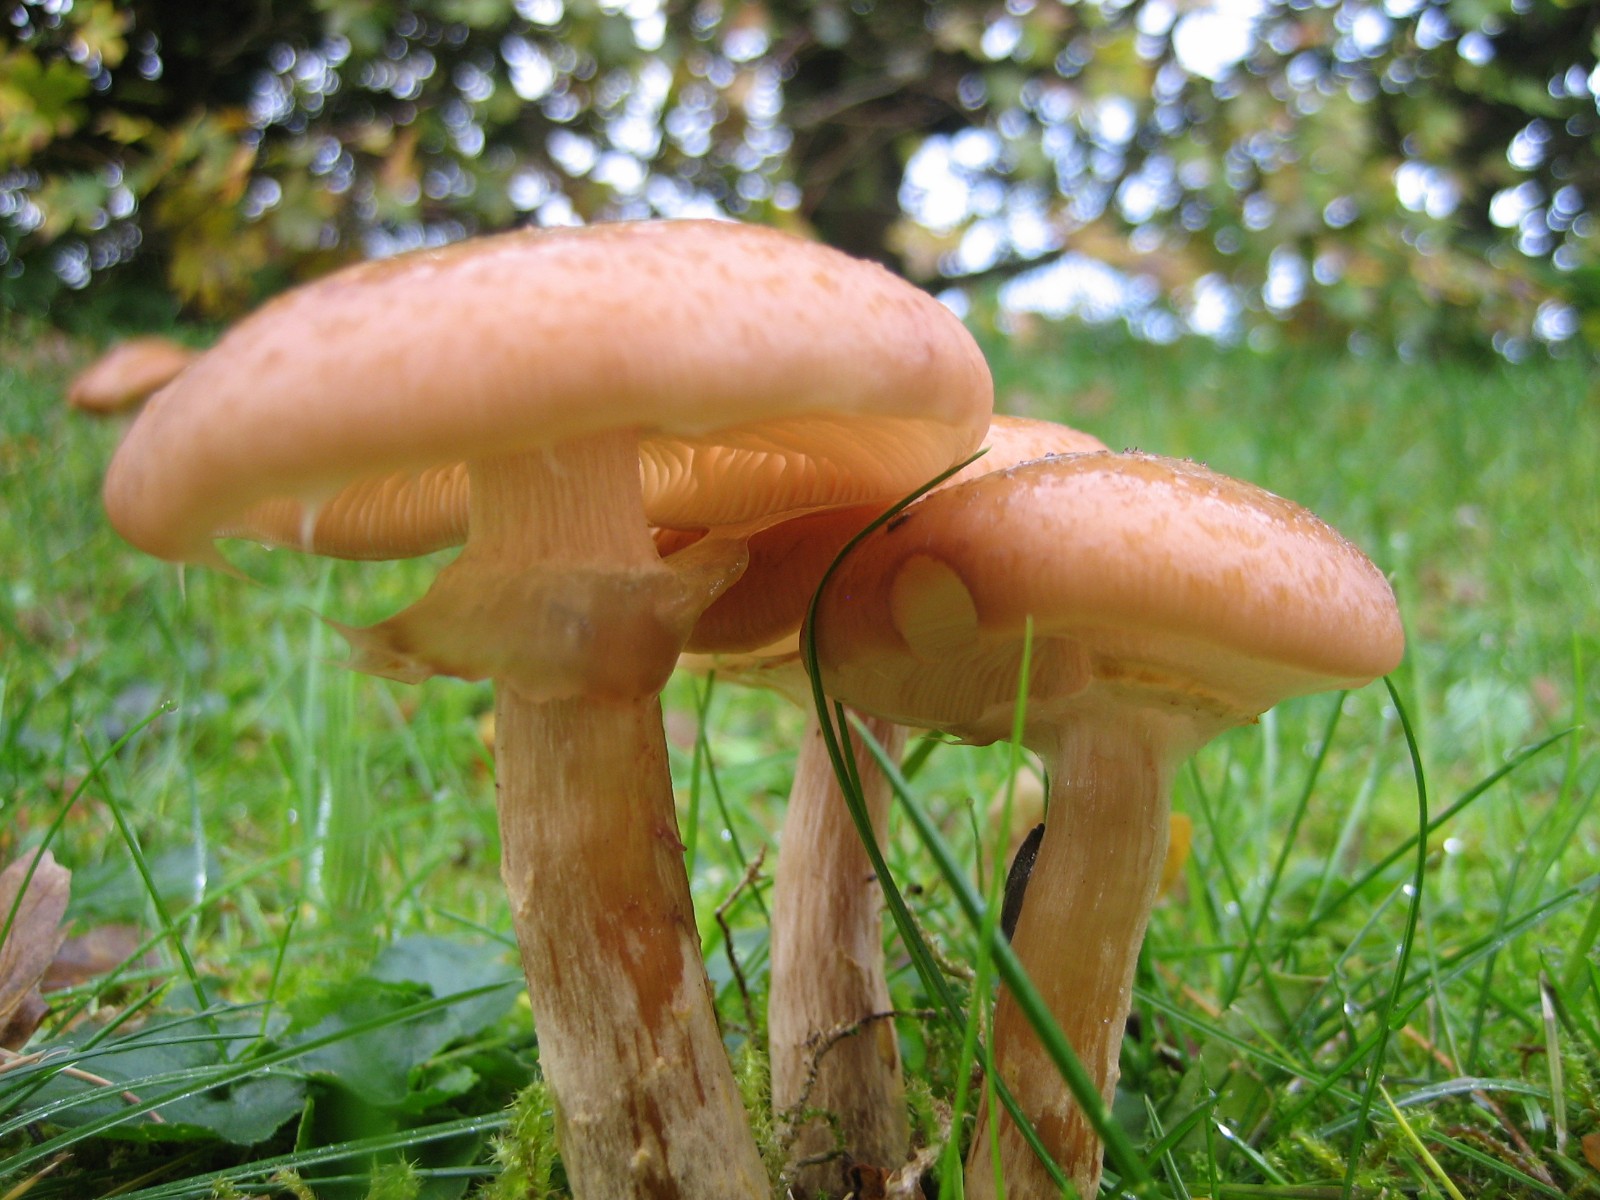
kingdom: Fungi
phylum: Basidiomycota
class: Agaricomycetes
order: Agaricales
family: Physalacriaceae
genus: Armillaria
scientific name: Armillaria lutea
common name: køllestokket honningsvamp
